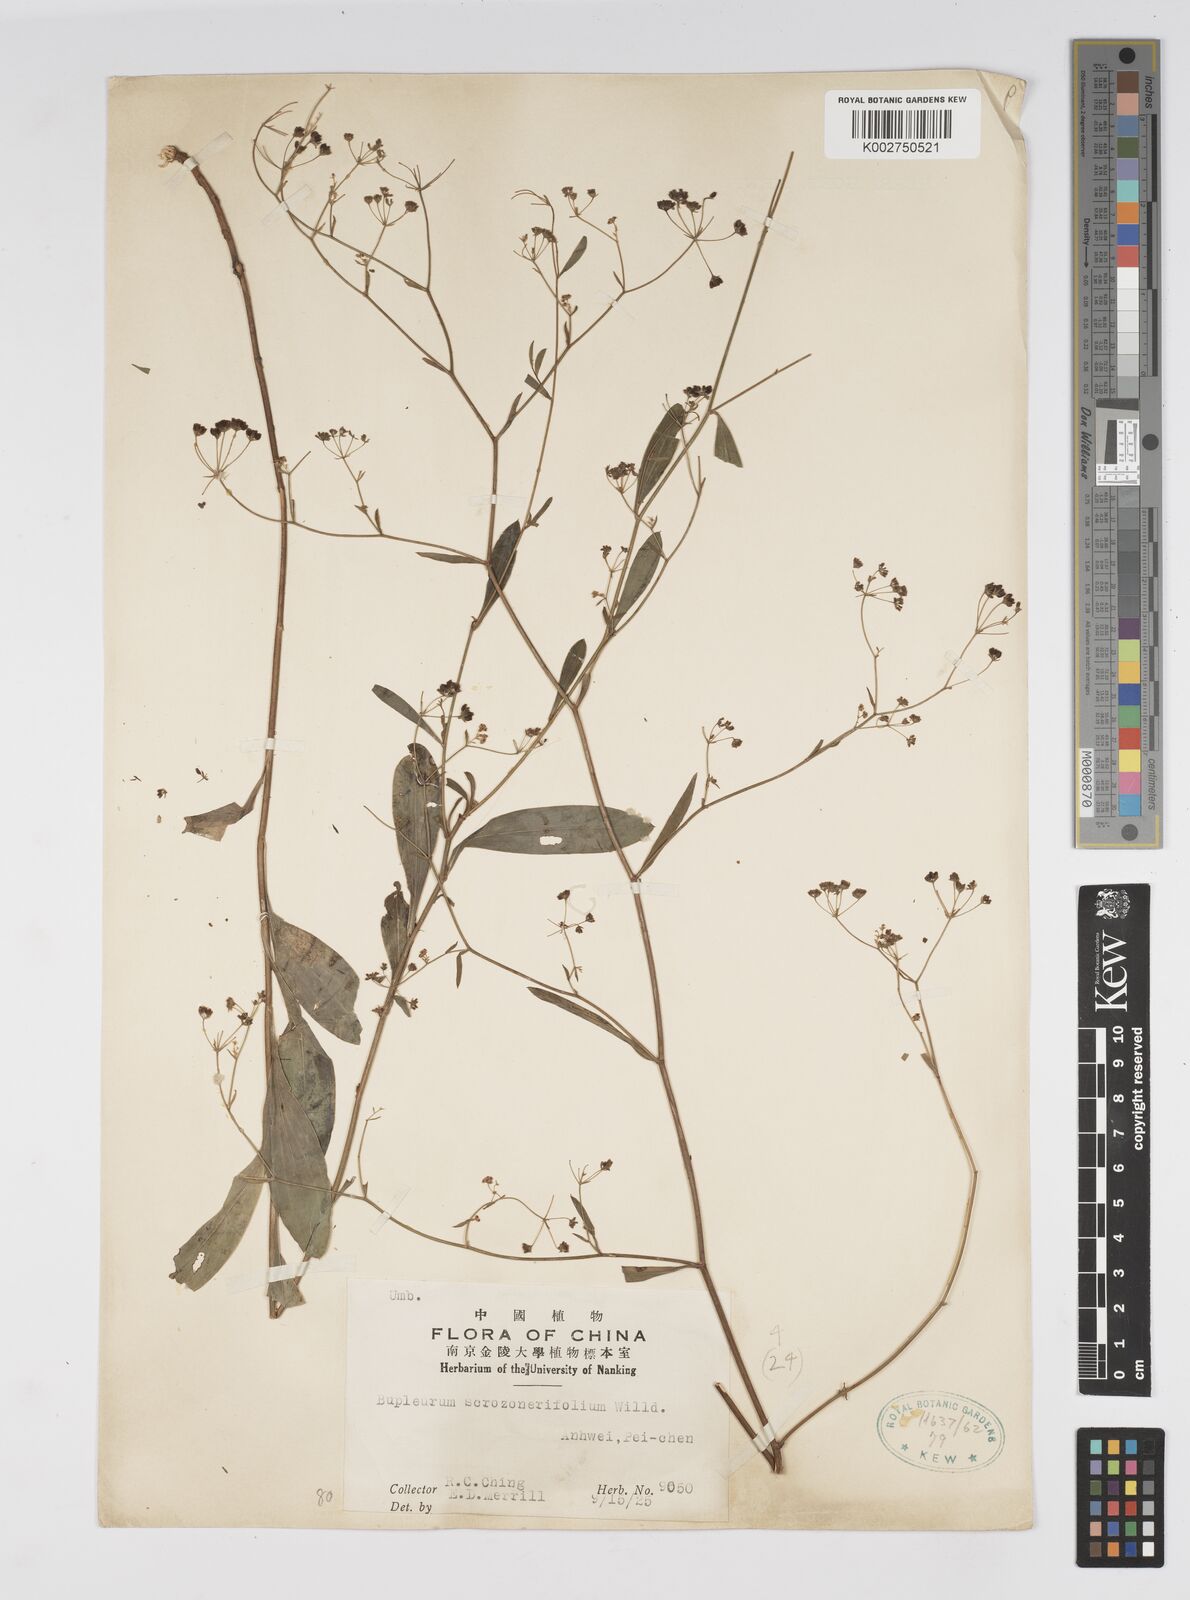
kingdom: Plantae
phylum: Tracheophyta
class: Magnoliopsida
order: Apiales
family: Apiaceae
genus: Bupleurum
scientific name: Bupleurum scorzonerifolium
